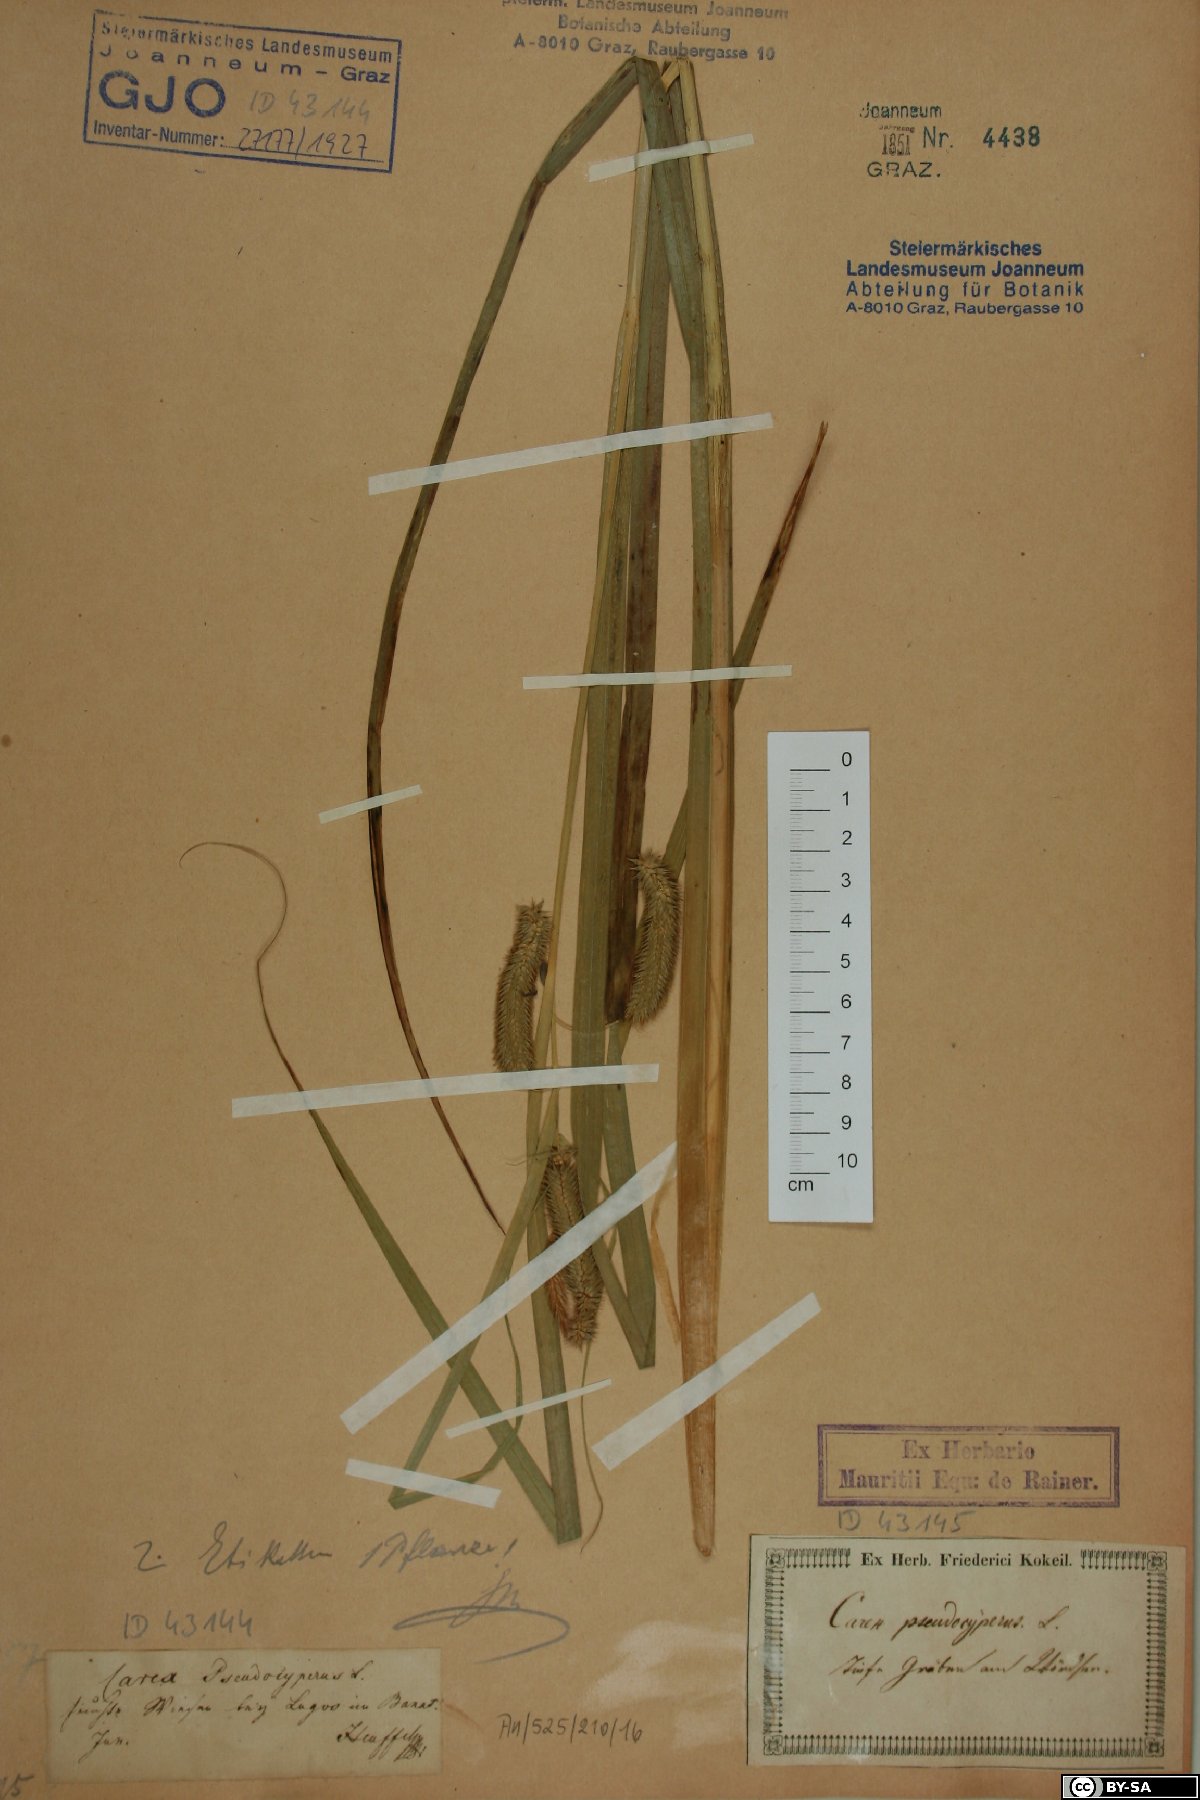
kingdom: Plantae
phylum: Tracheophyta
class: Liliopsida
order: Poales
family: Cyperaceae
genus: Carex
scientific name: Carex pseudocyperus
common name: Cyperus sedge
